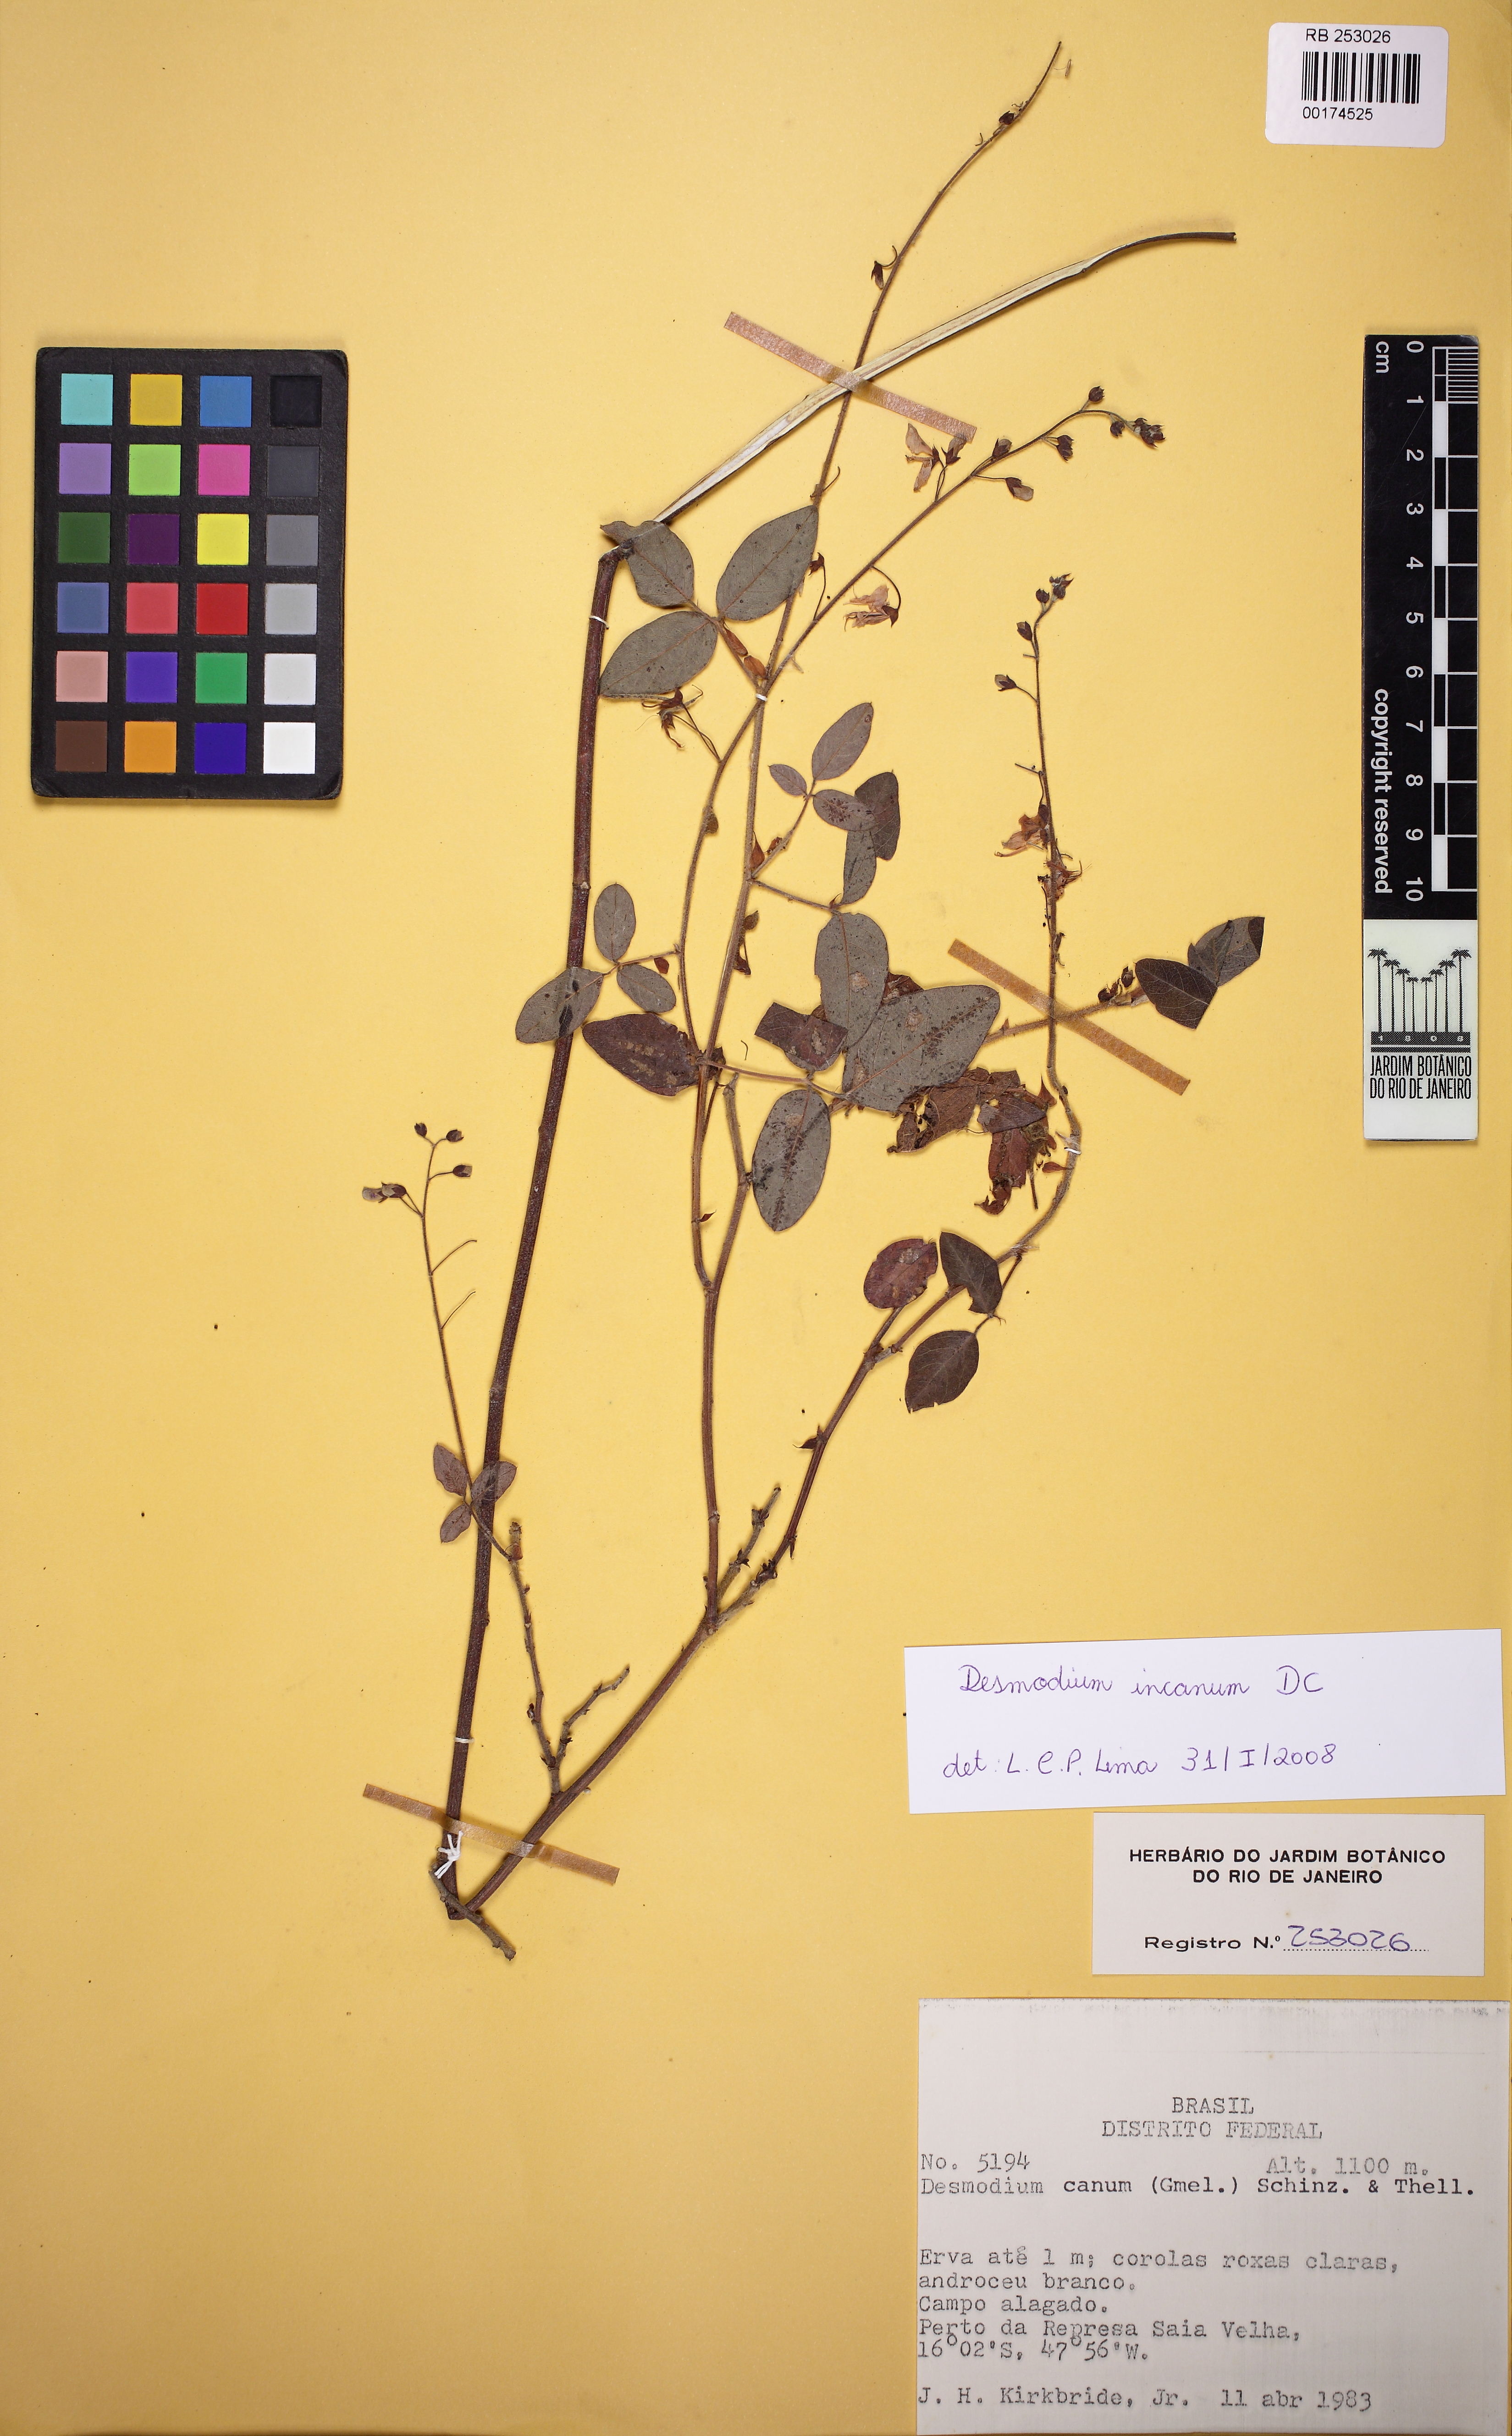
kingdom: Plantae
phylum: Tracheophyta
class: Magnoliopsida
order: Fabales
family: Fabaceae
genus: Desmodium
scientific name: Desmodium incanum
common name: Tickclover
